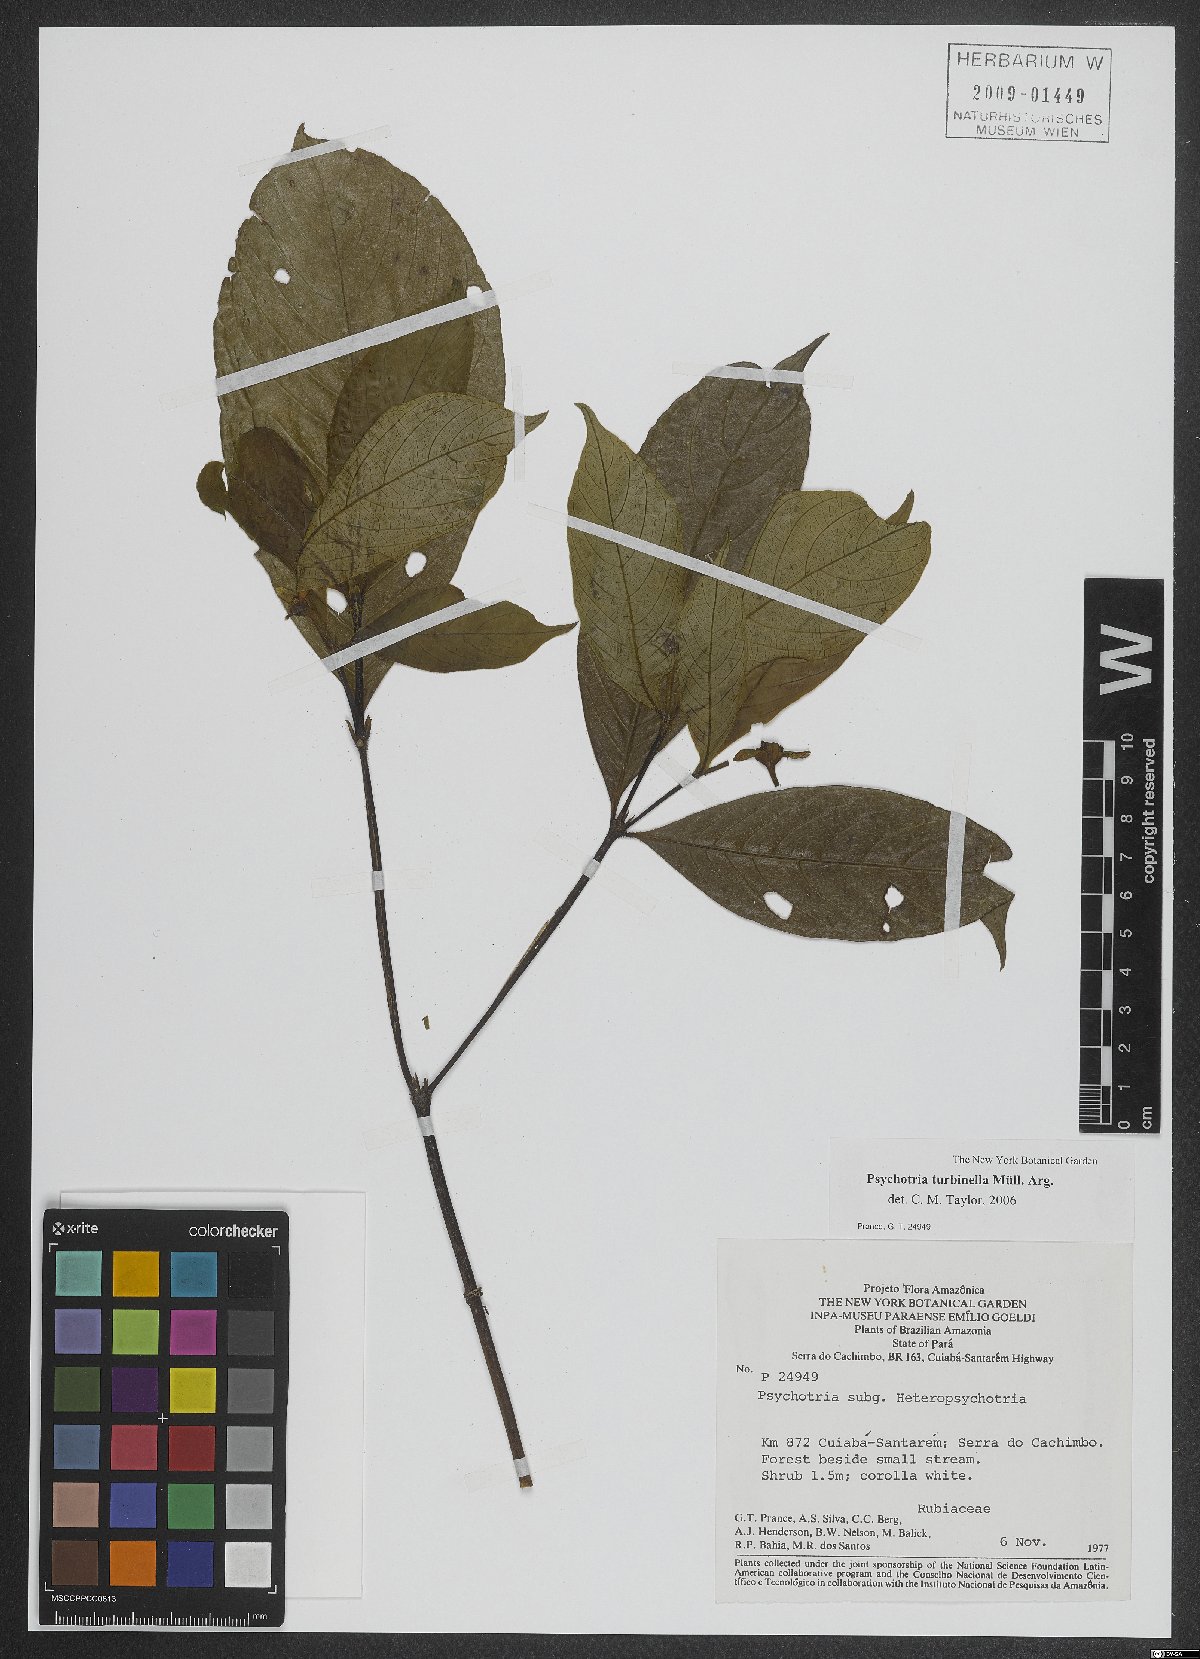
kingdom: Plantae
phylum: Tracheophyta
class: Magnoliopsida
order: Gentianales
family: Rubiaceae
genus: Palicourea
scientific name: Palicourea turbinella
